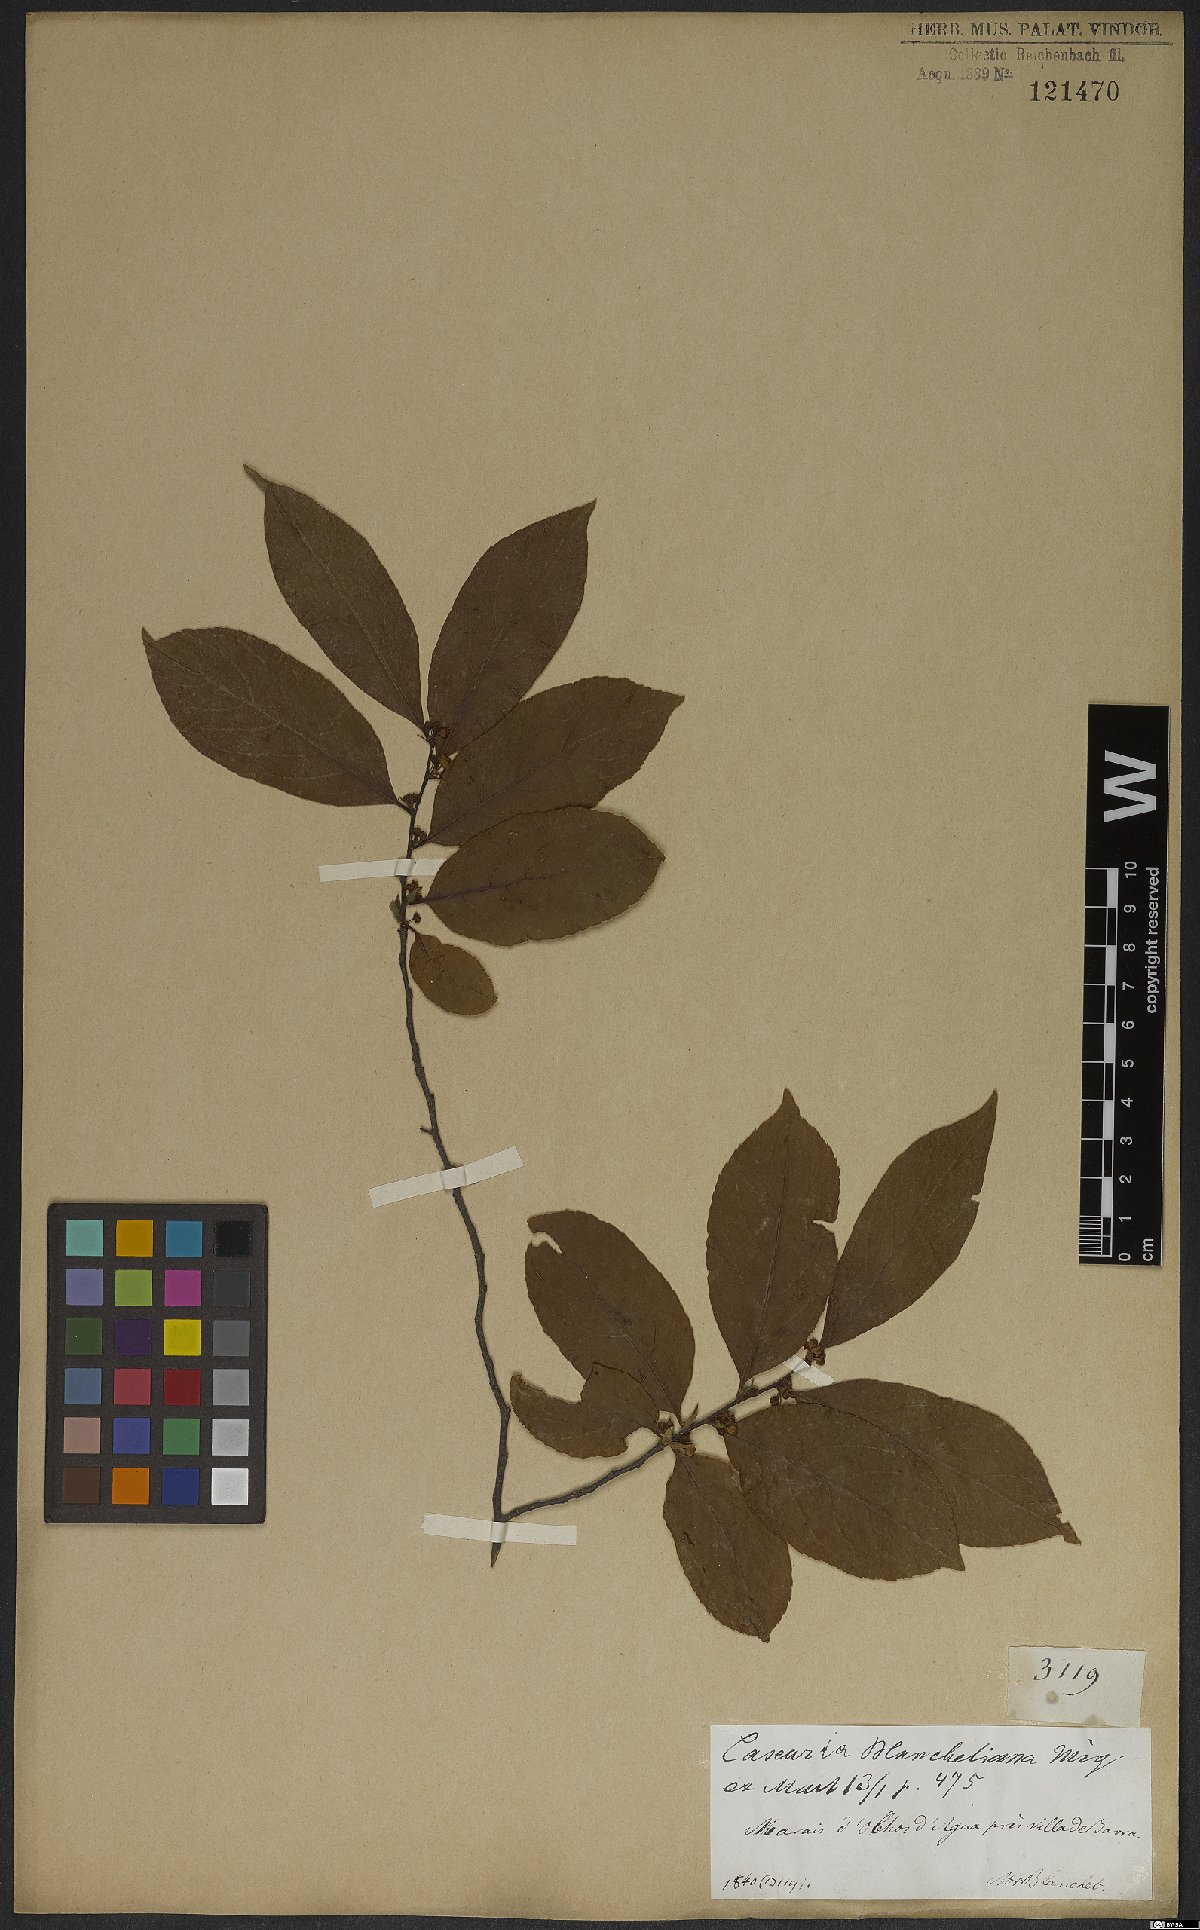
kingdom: Plantae
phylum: Tracheophyta
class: Magnoliopsida
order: Malpighiales
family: Salicaceae
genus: Casearia
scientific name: Casearia ulmifolia
